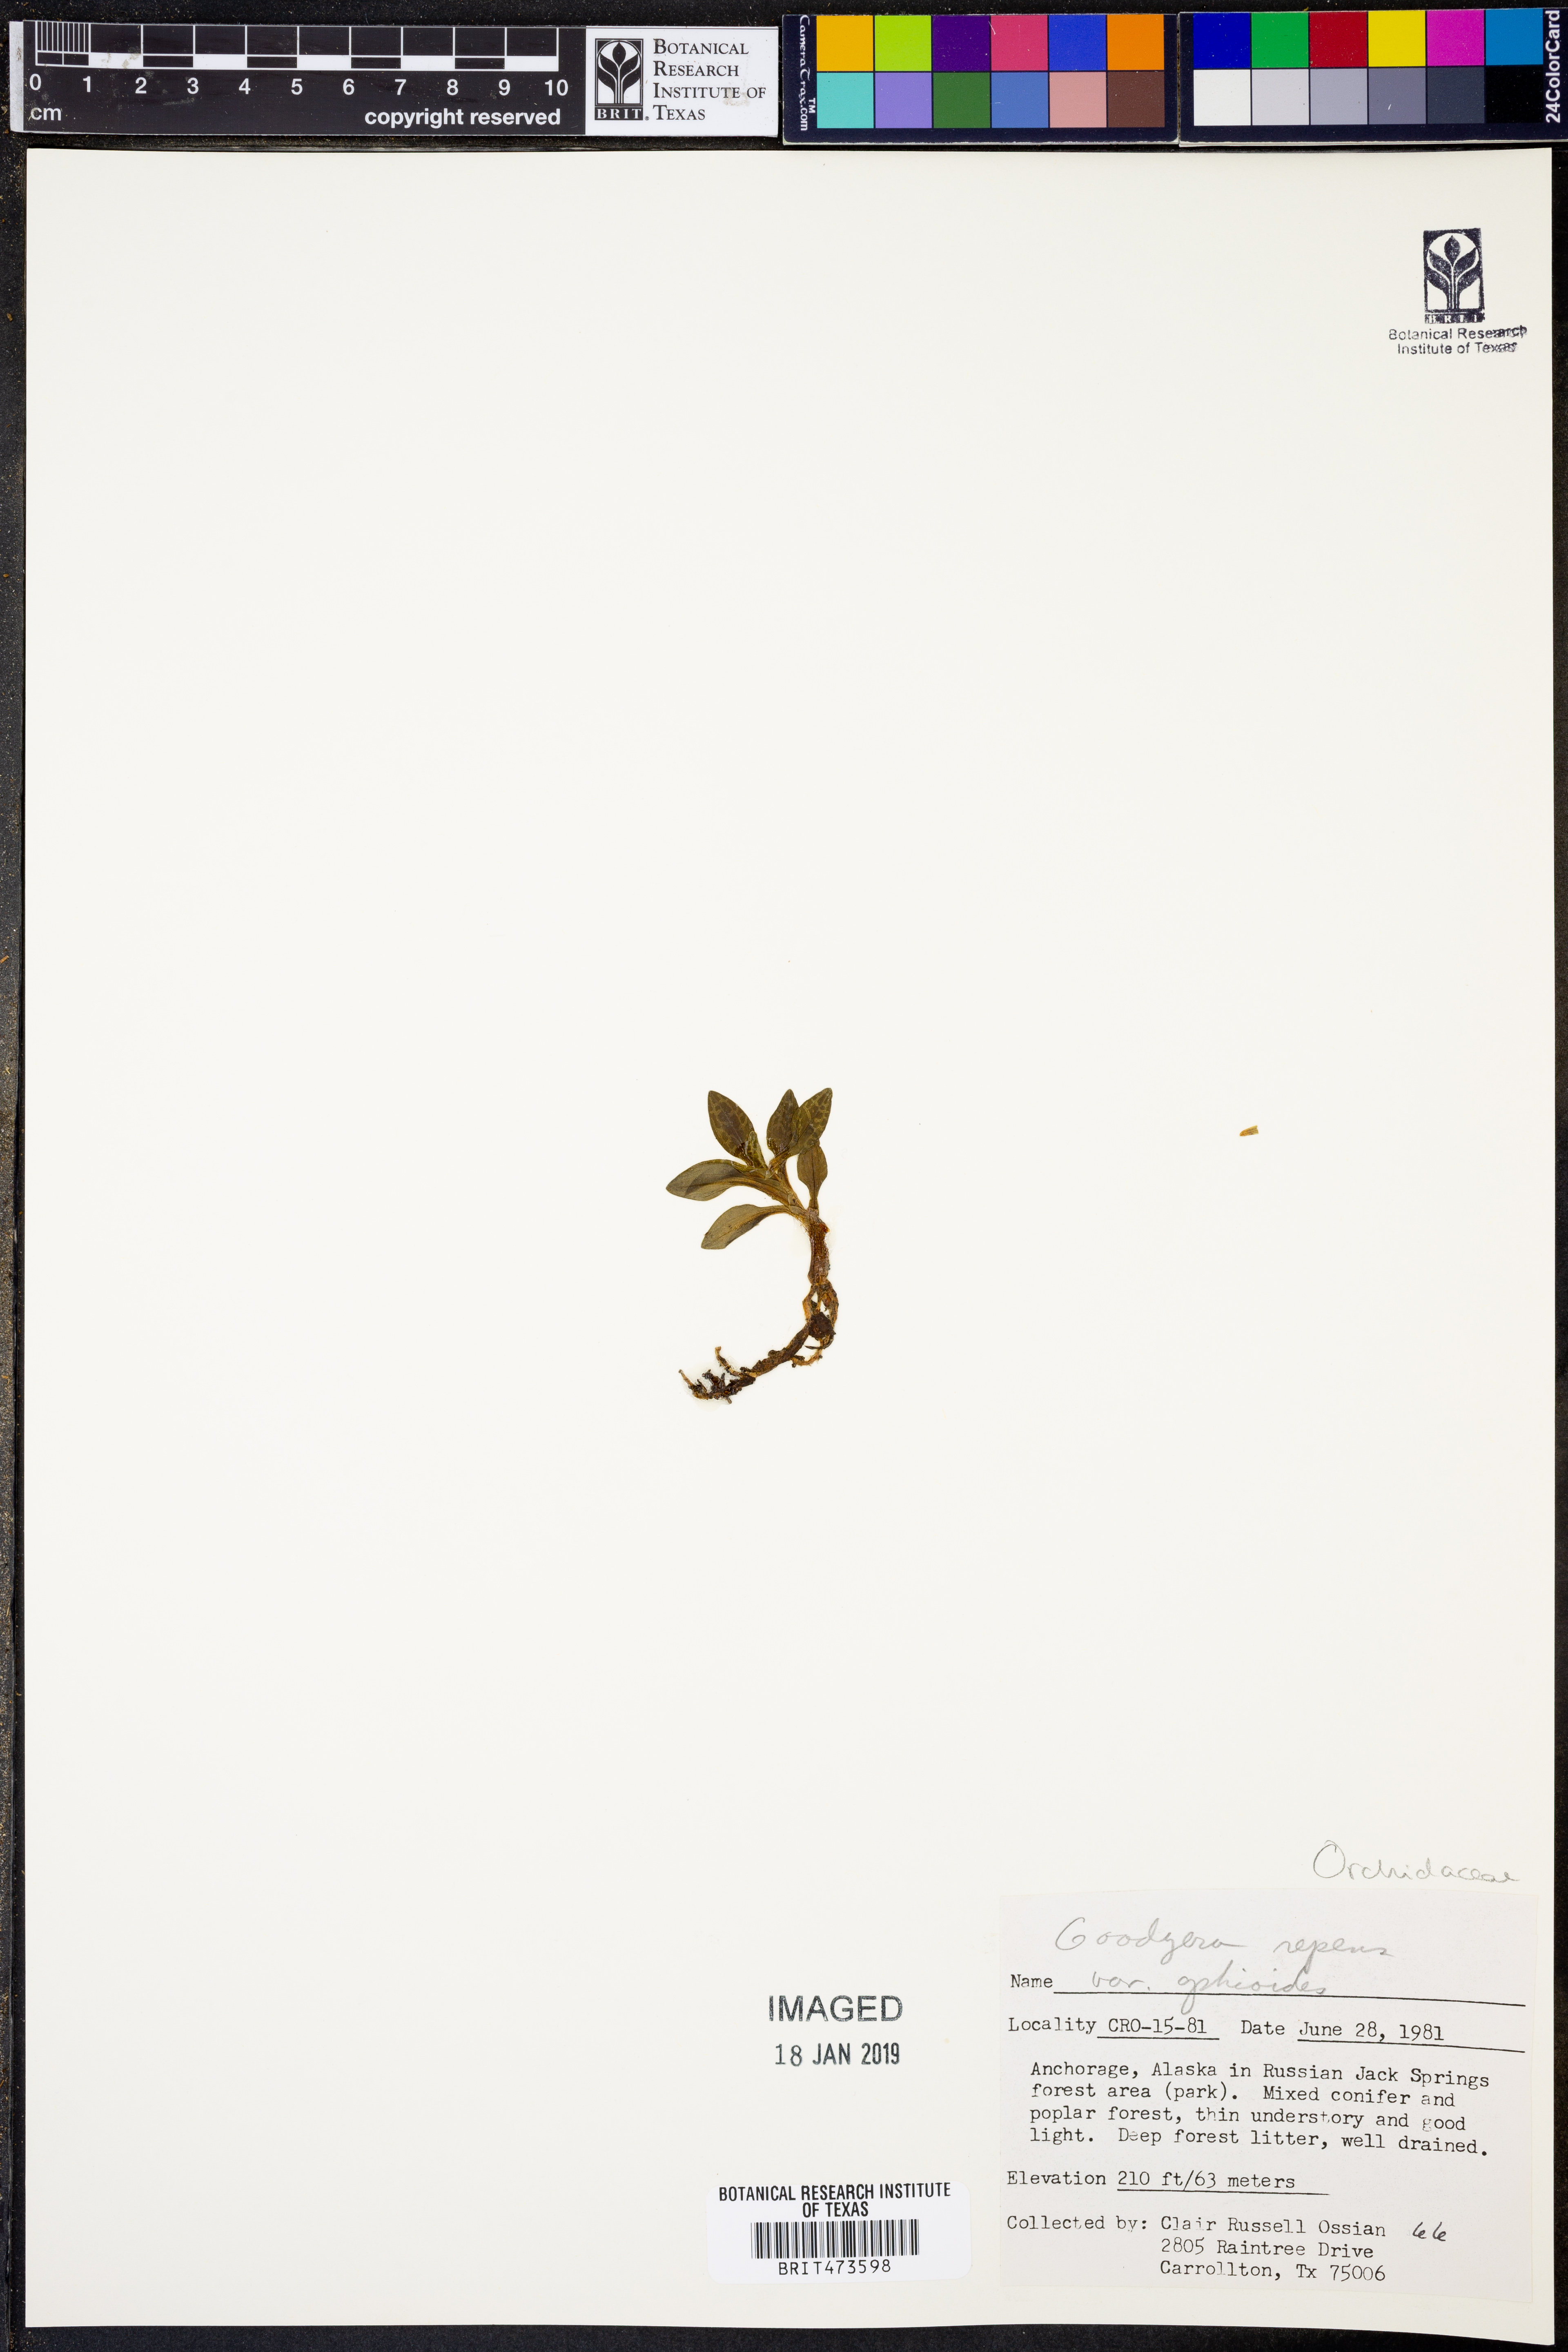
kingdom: Plantae
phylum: Tracheophyta
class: Liliopsida
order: Asparagales
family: Orchidaceae
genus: Goodyera
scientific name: Goodyera repens
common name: Creeping lady's-tresses
